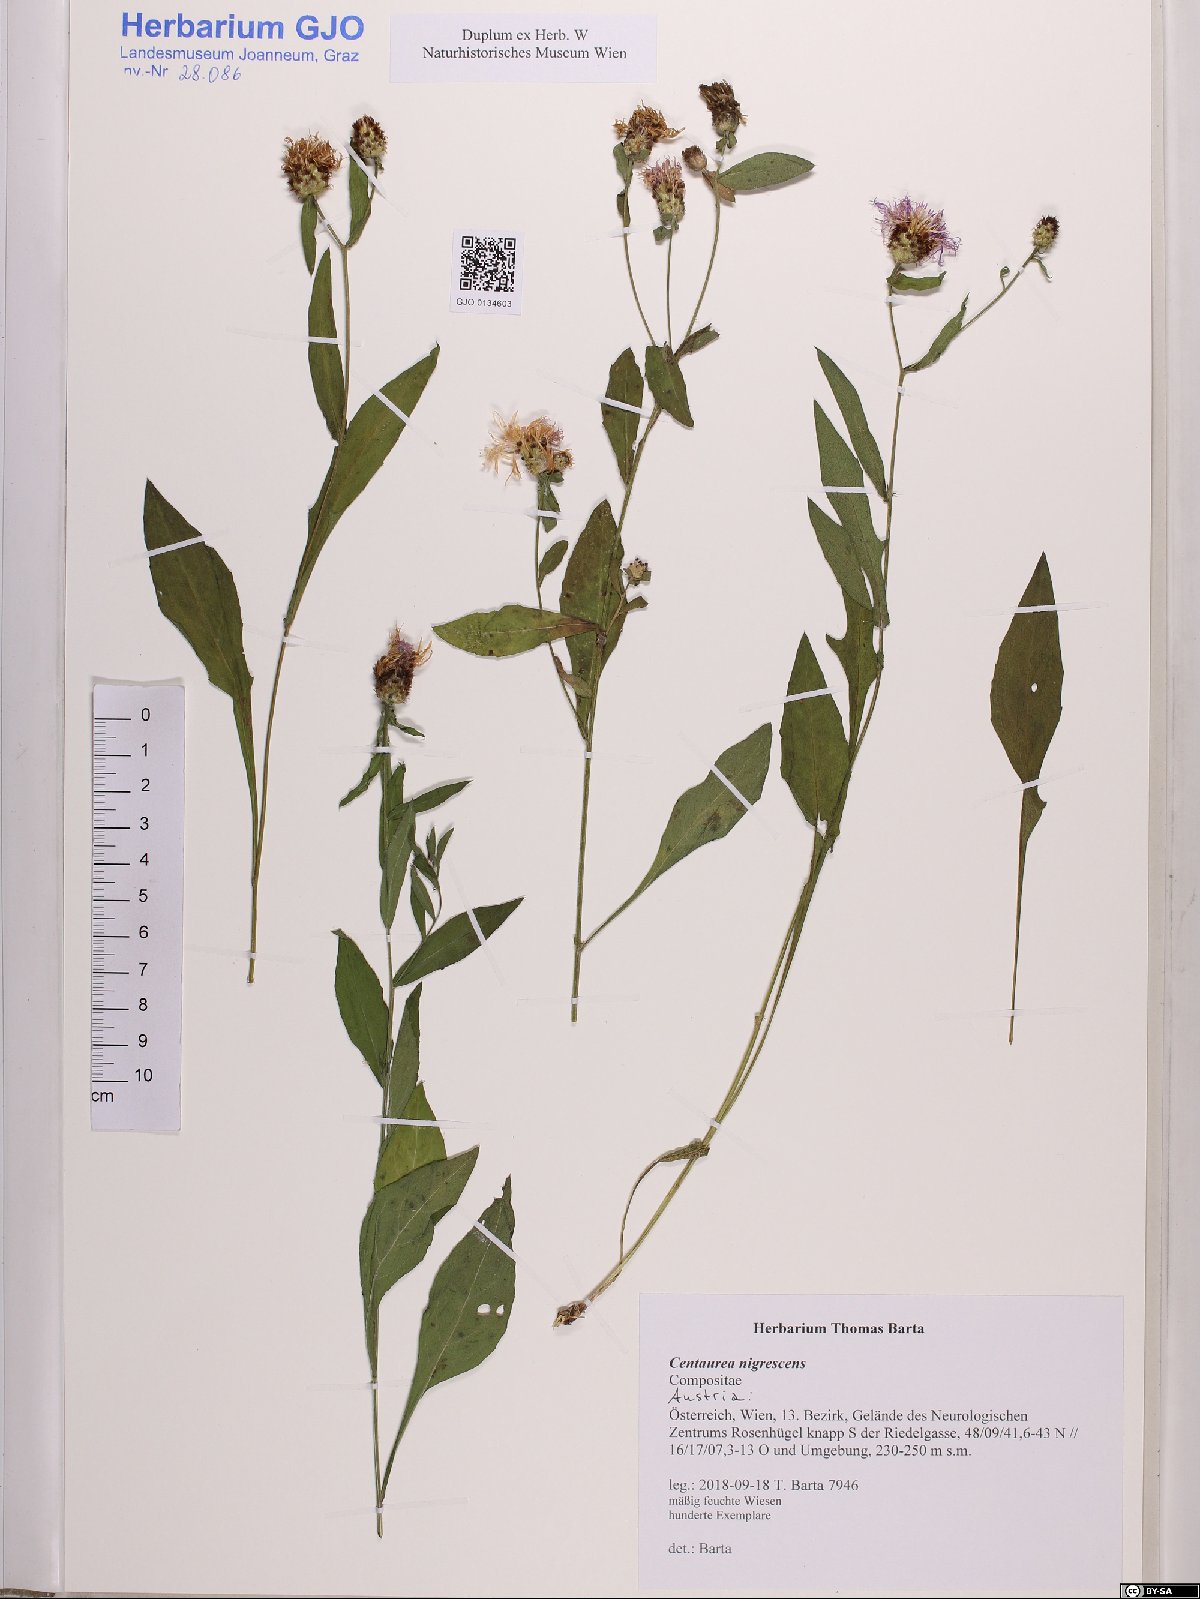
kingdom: Plantae
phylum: Tracheophyta
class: Magnoliopsida
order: Asterales
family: Asteraceae
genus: Centaurea
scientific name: Centaurea nigrescens
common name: Tyrol knapweed
